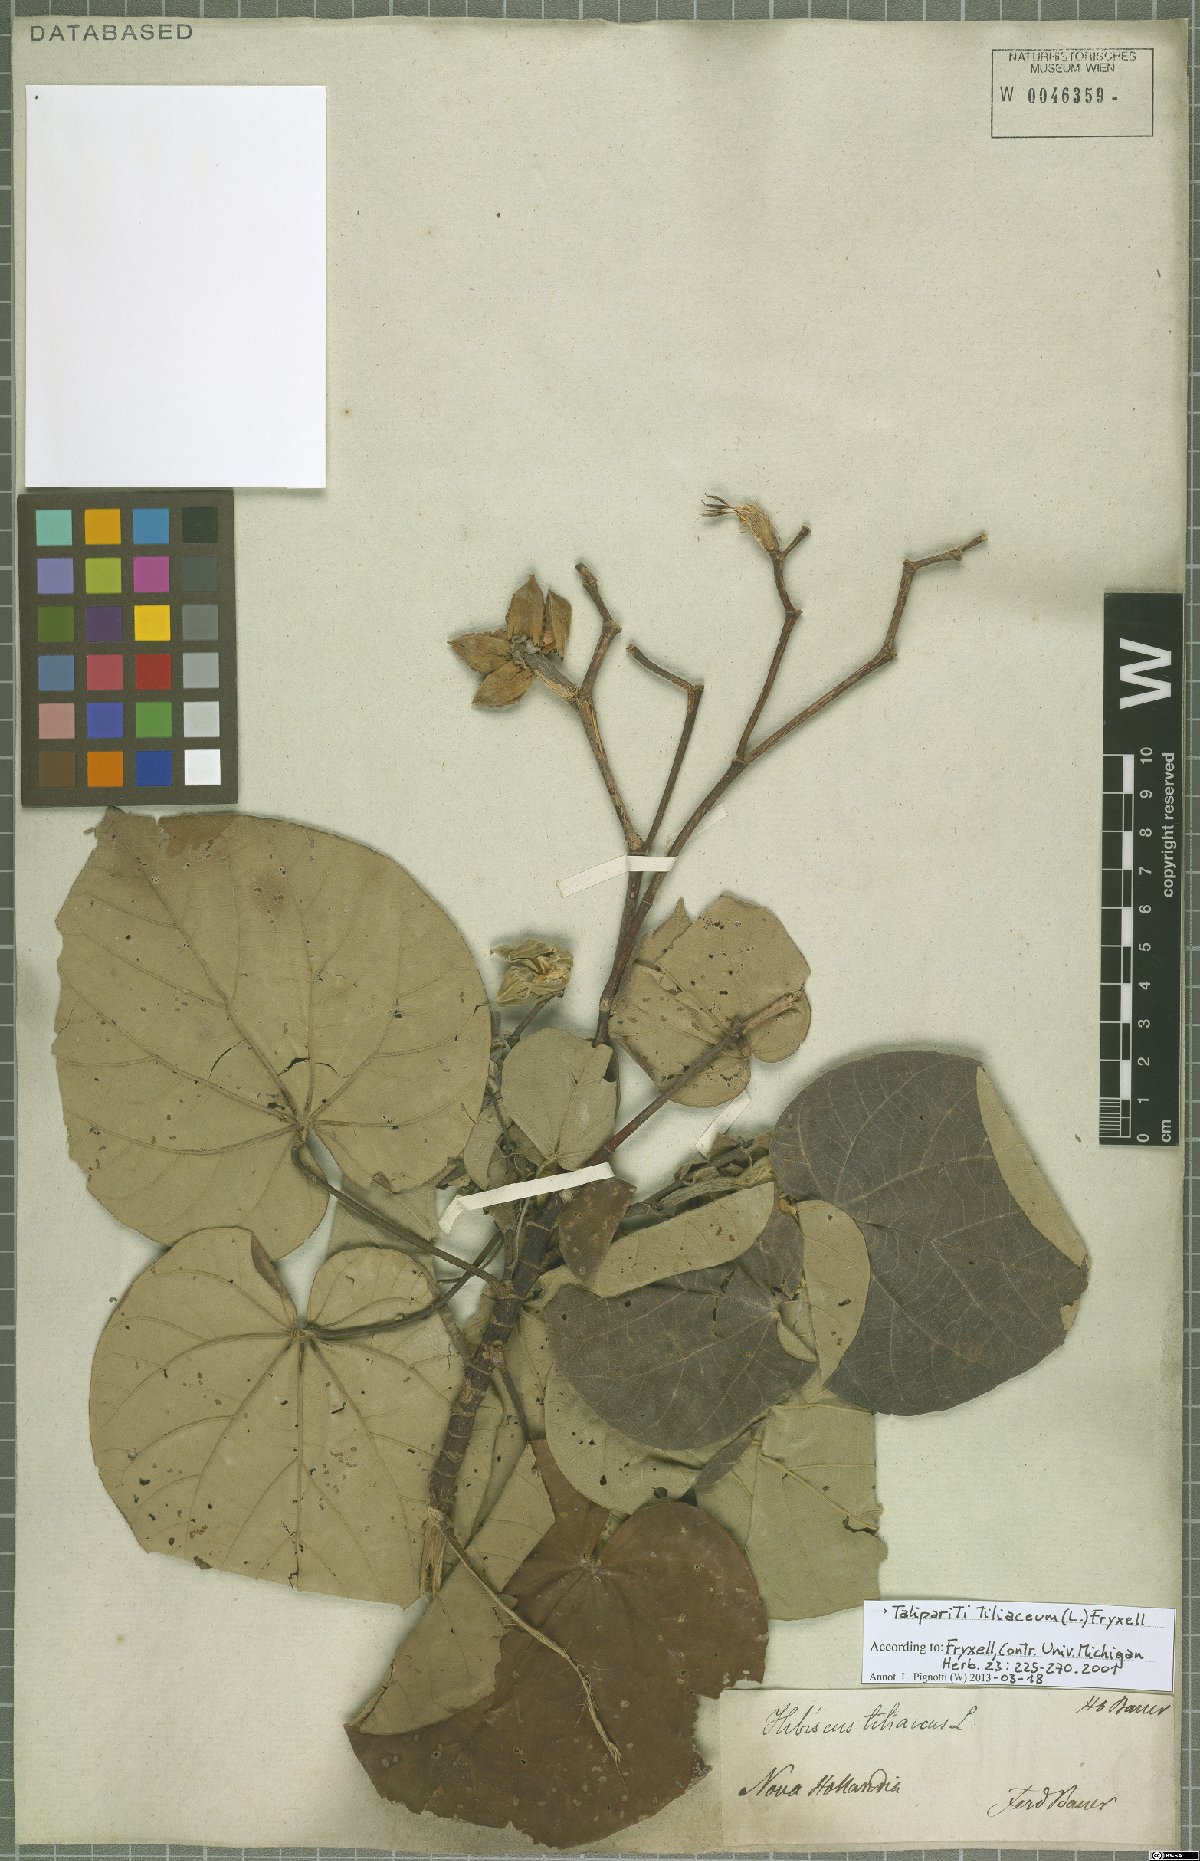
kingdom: Plantae
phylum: Tracheophyta
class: Magnoliopsida
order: Malvales
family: Malvaceae
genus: Talipariti
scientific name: Talipariti tiliaceum
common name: Sea hibiscus
